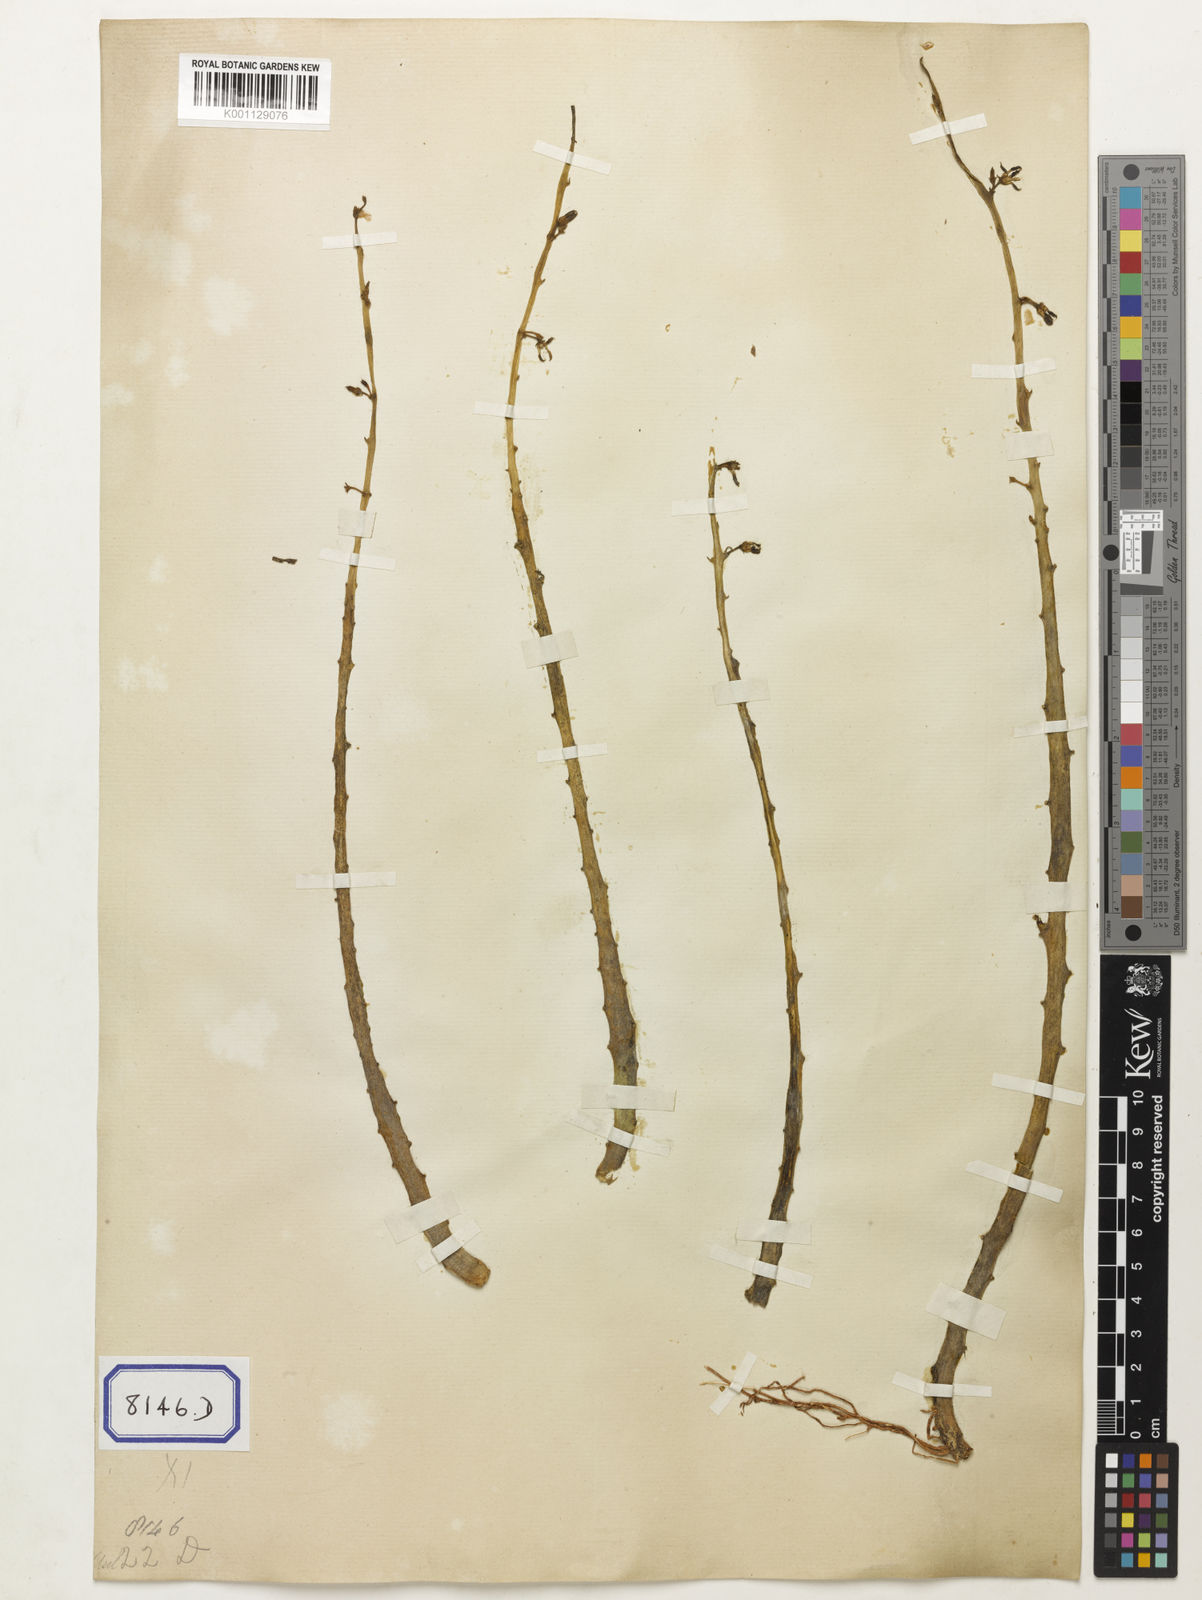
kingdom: Plantae
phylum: Tracheophyta
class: Magnoliopsida
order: Gentianales
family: Apocynaceae
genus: Caralluma
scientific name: Caralluma
